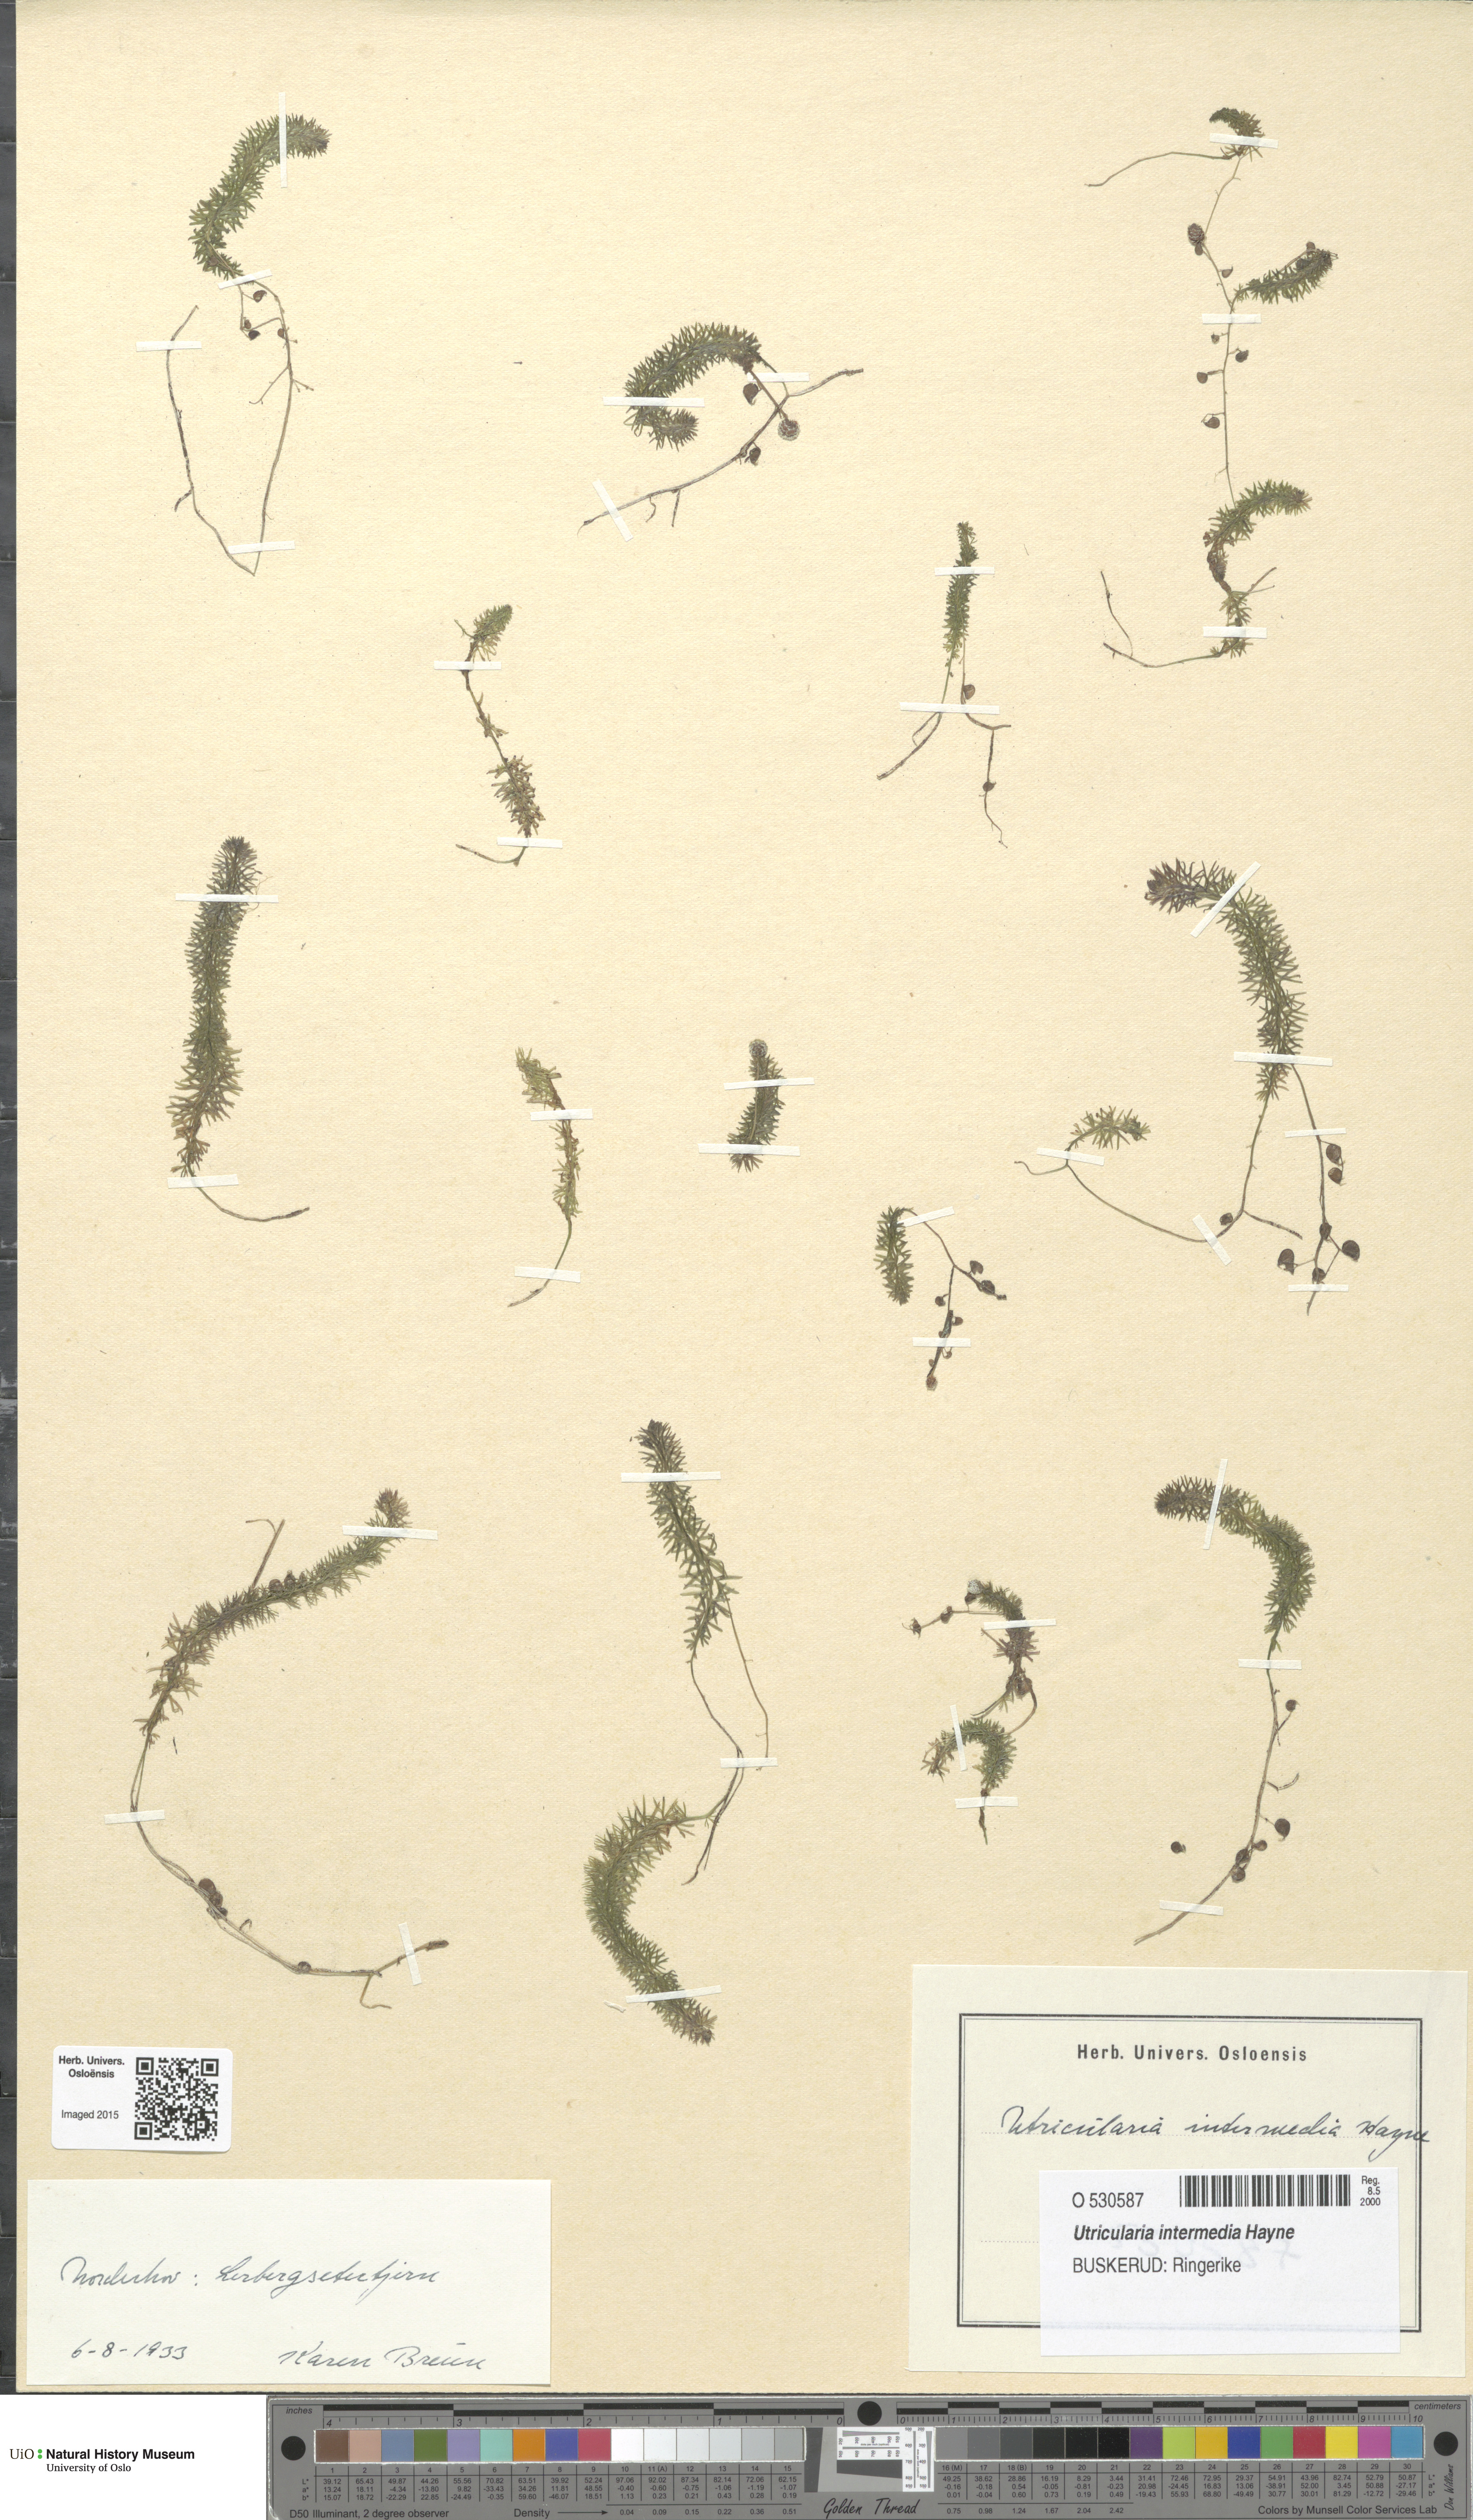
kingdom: Plantae
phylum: Tracheophyta
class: Magnoliopsida
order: Lamiales
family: Lentibulariaceae
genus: Utricularia
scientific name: Utricularia intermedia
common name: Intermediate bladderwort
